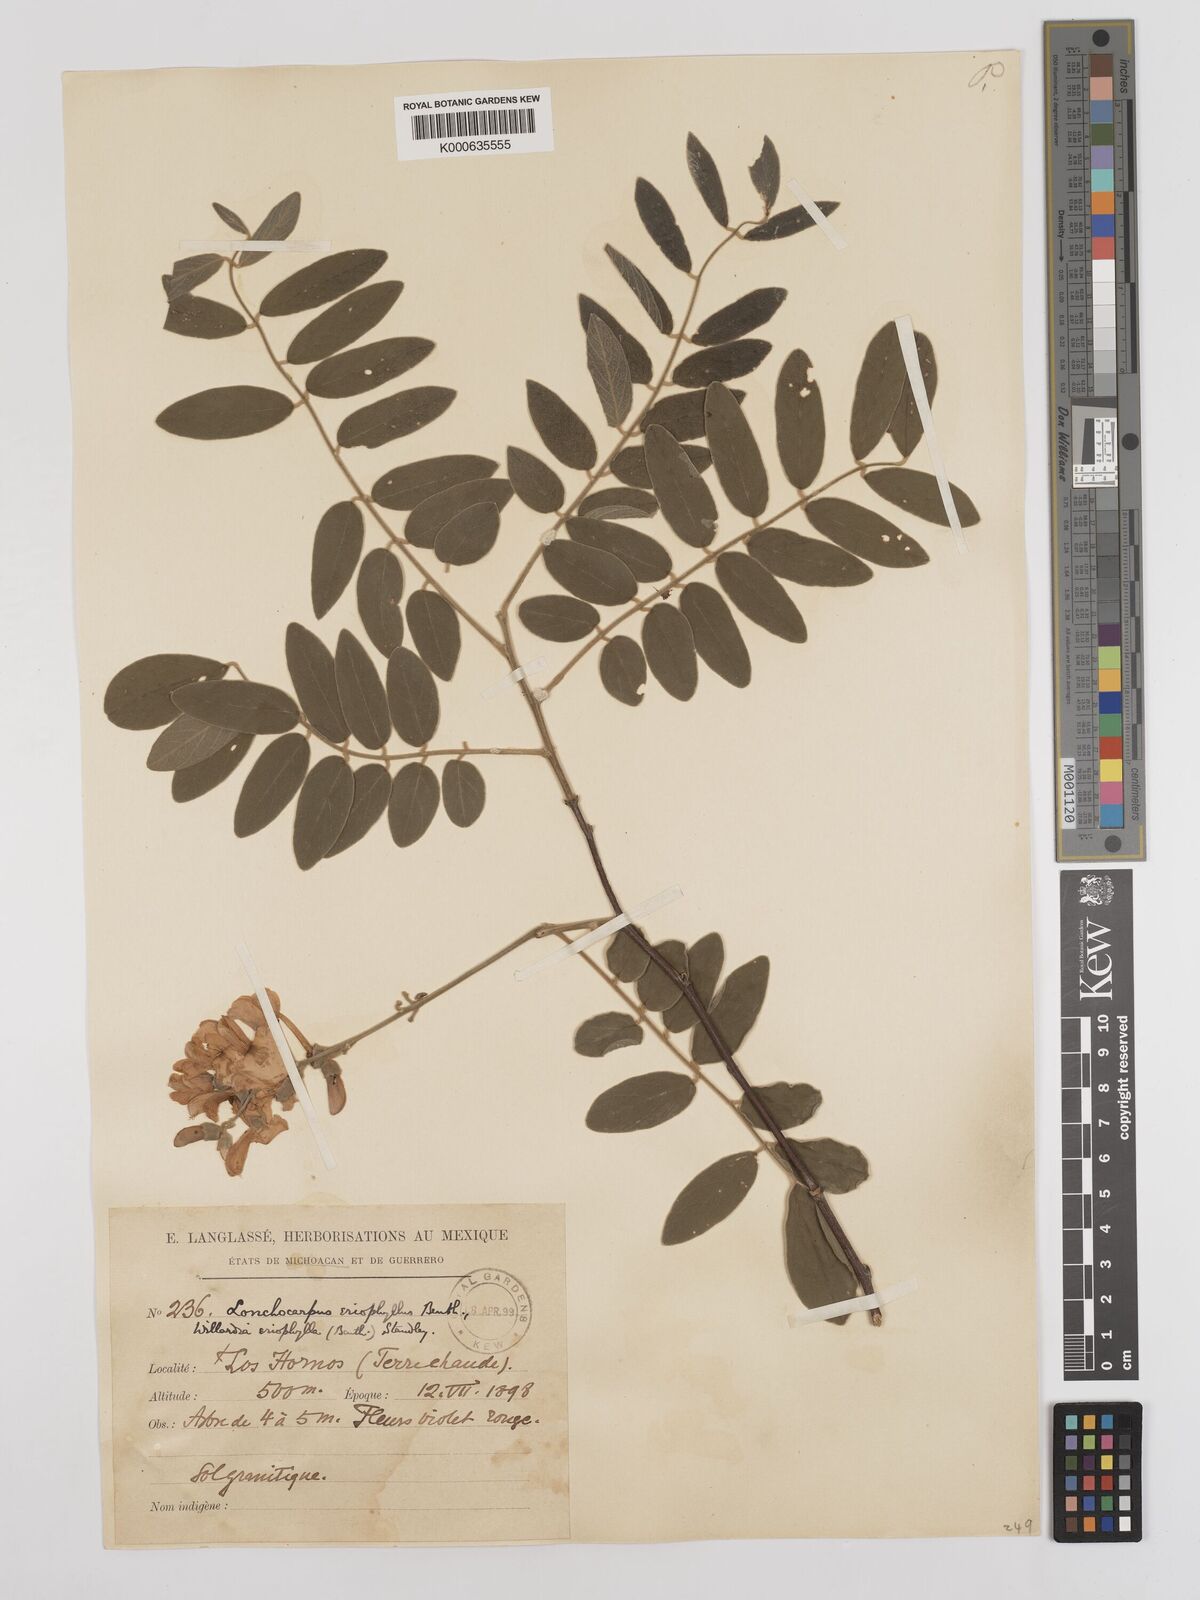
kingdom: Plantae
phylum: Tracheophyta
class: Magnoliopsida
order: Fabales
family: Fabaceae
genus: Lonchocarpus
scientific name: Lonchocarpus eriophyllus
